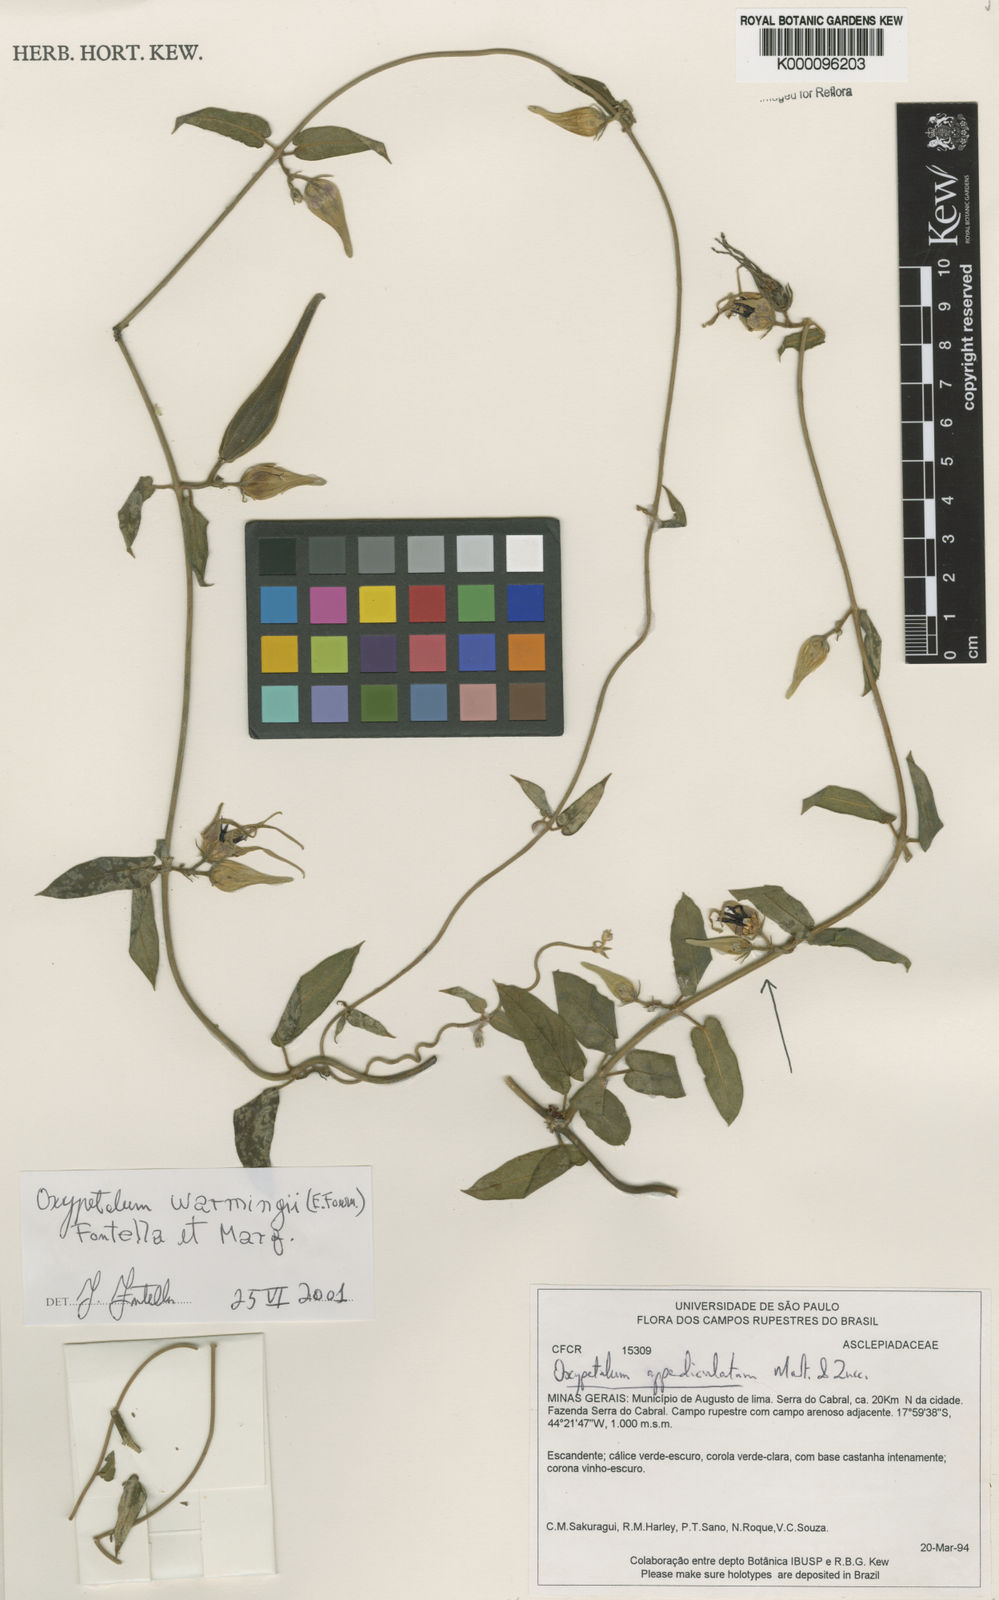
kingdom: Plantae
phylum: Tracheophyta
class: Magnoliopsida
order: Gentianales
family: Apocynaceae
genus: Oxypetalum
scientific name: Oxypetalum warmingii
